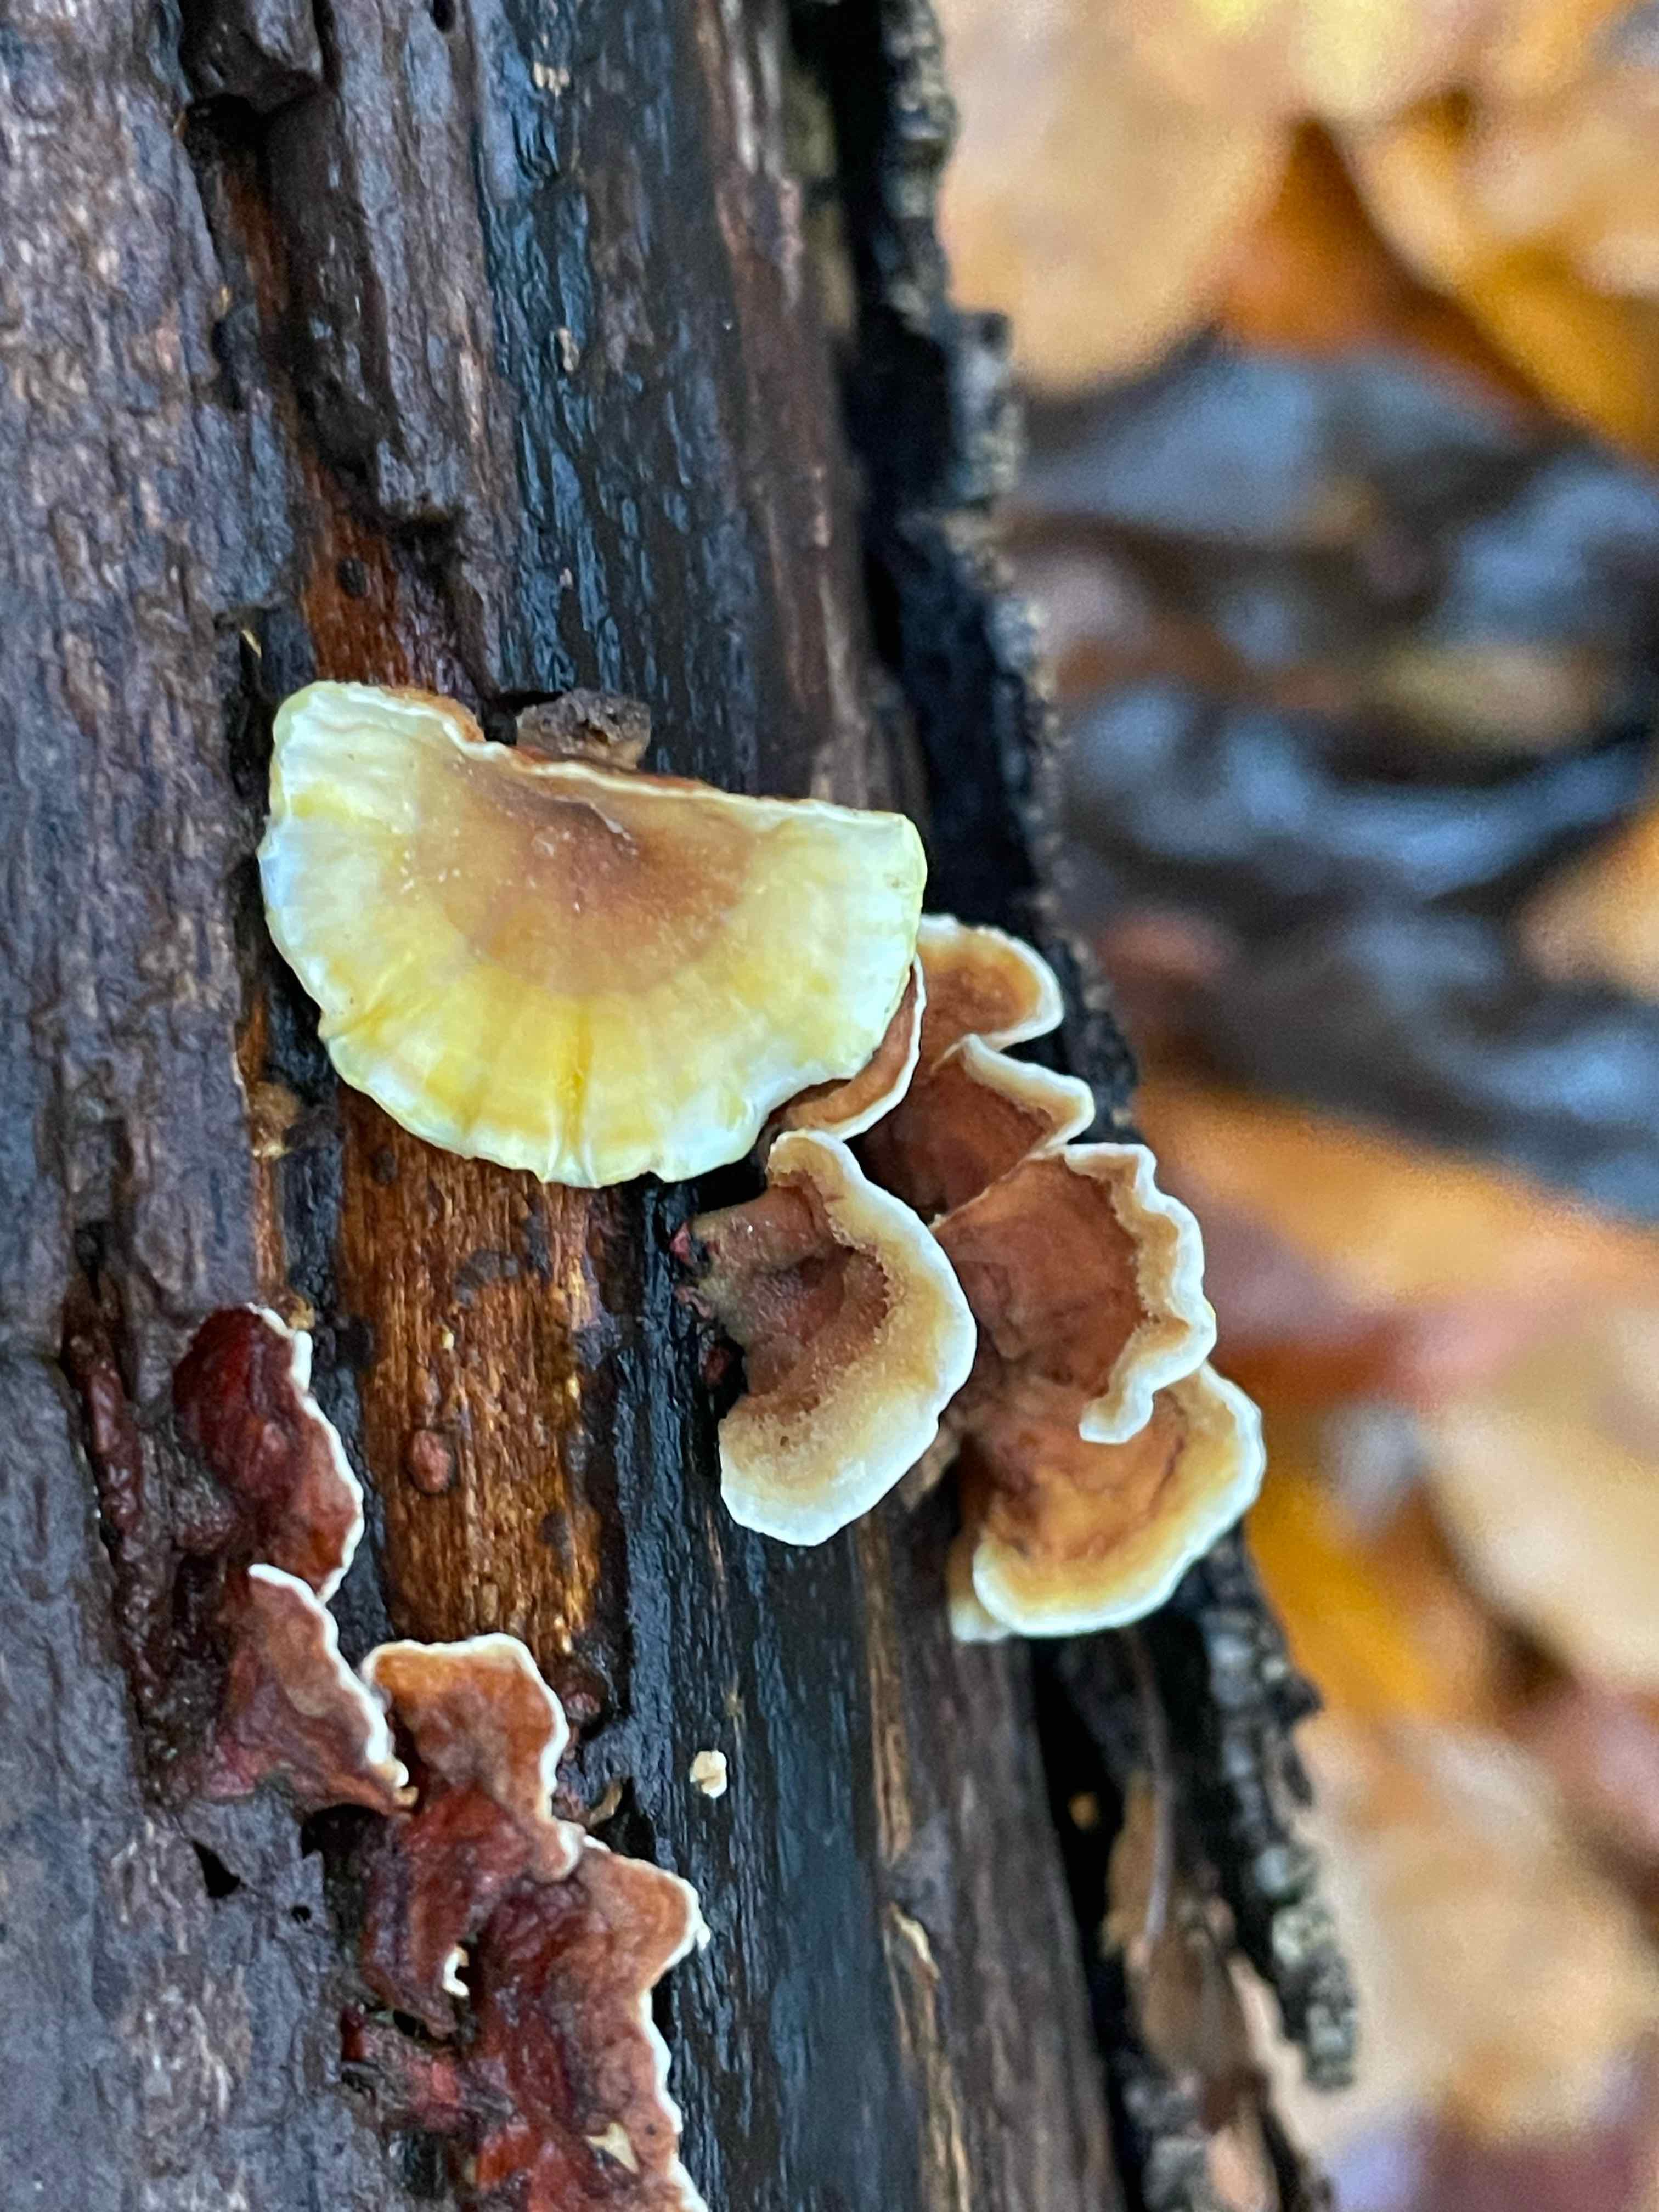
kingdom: Fungi
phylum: Basidiomycota
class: Agaricomycetes
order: Russulales
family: Stereaceae
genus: Stereum
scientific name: Stereum subtomentosum
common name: smuk lædersvamp
